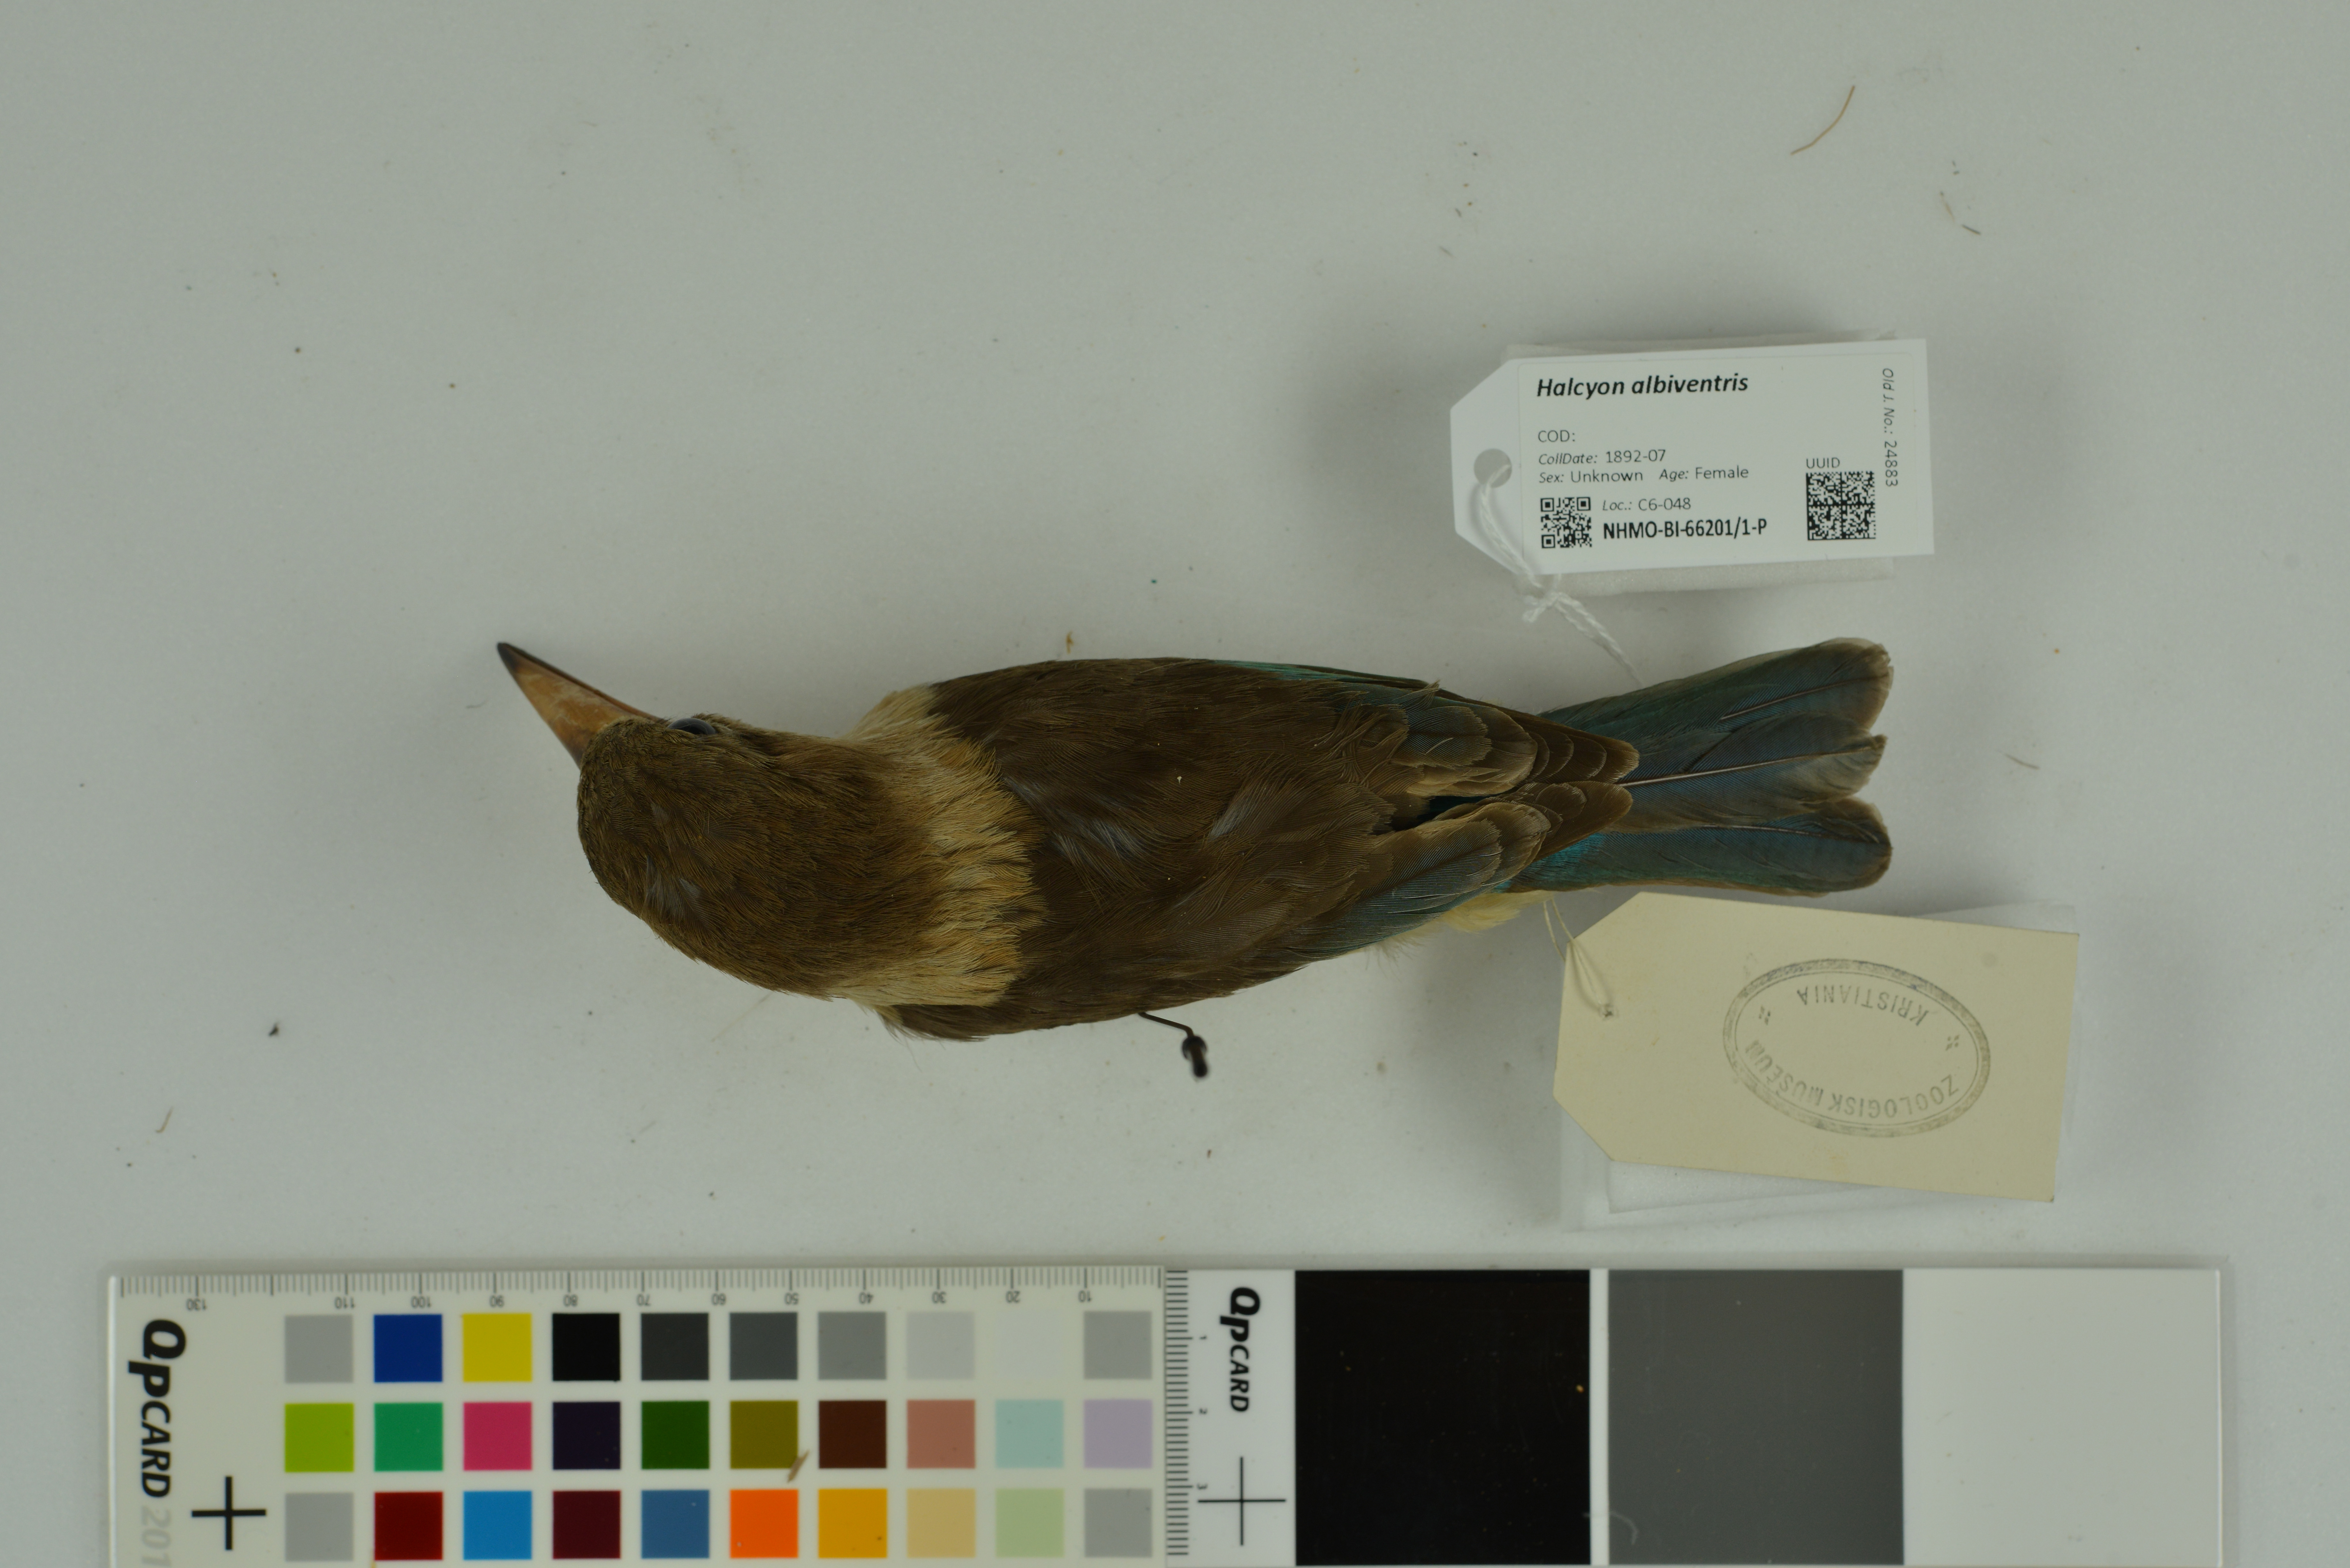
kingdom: Animalia
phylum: Chordata
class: Aves
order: Coraciiformes
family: Alcedinidae
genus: Halcyon
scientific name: Halcyon albiventris
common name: Brown-hooded kingfisher
